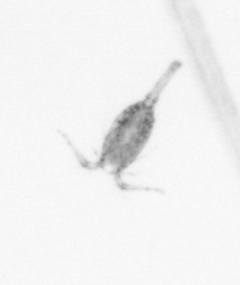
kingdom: Animalia
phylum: Arthropoda
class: Copepoda
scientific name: Copepoda
